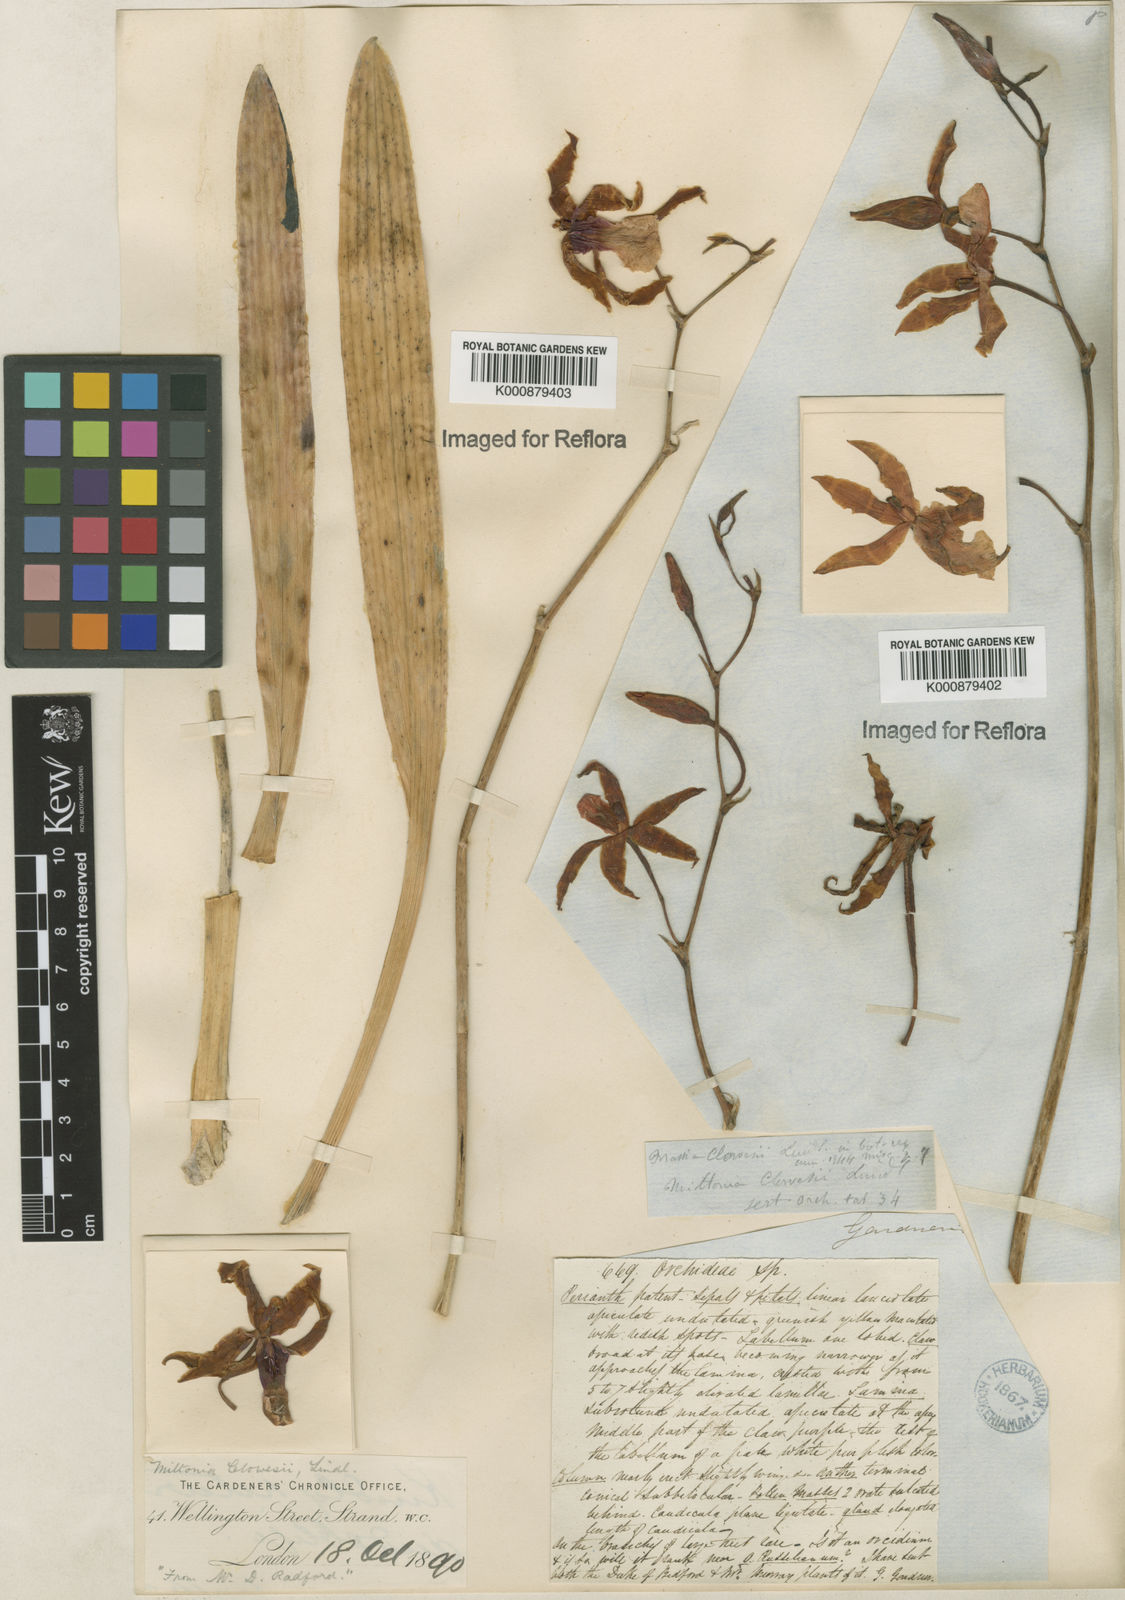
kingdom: Plantae
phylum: Tracheophyta
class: Liliopsida
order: Asparagales
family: Orchidaceae
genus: Miltonia
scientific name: Miltonia clowesii
